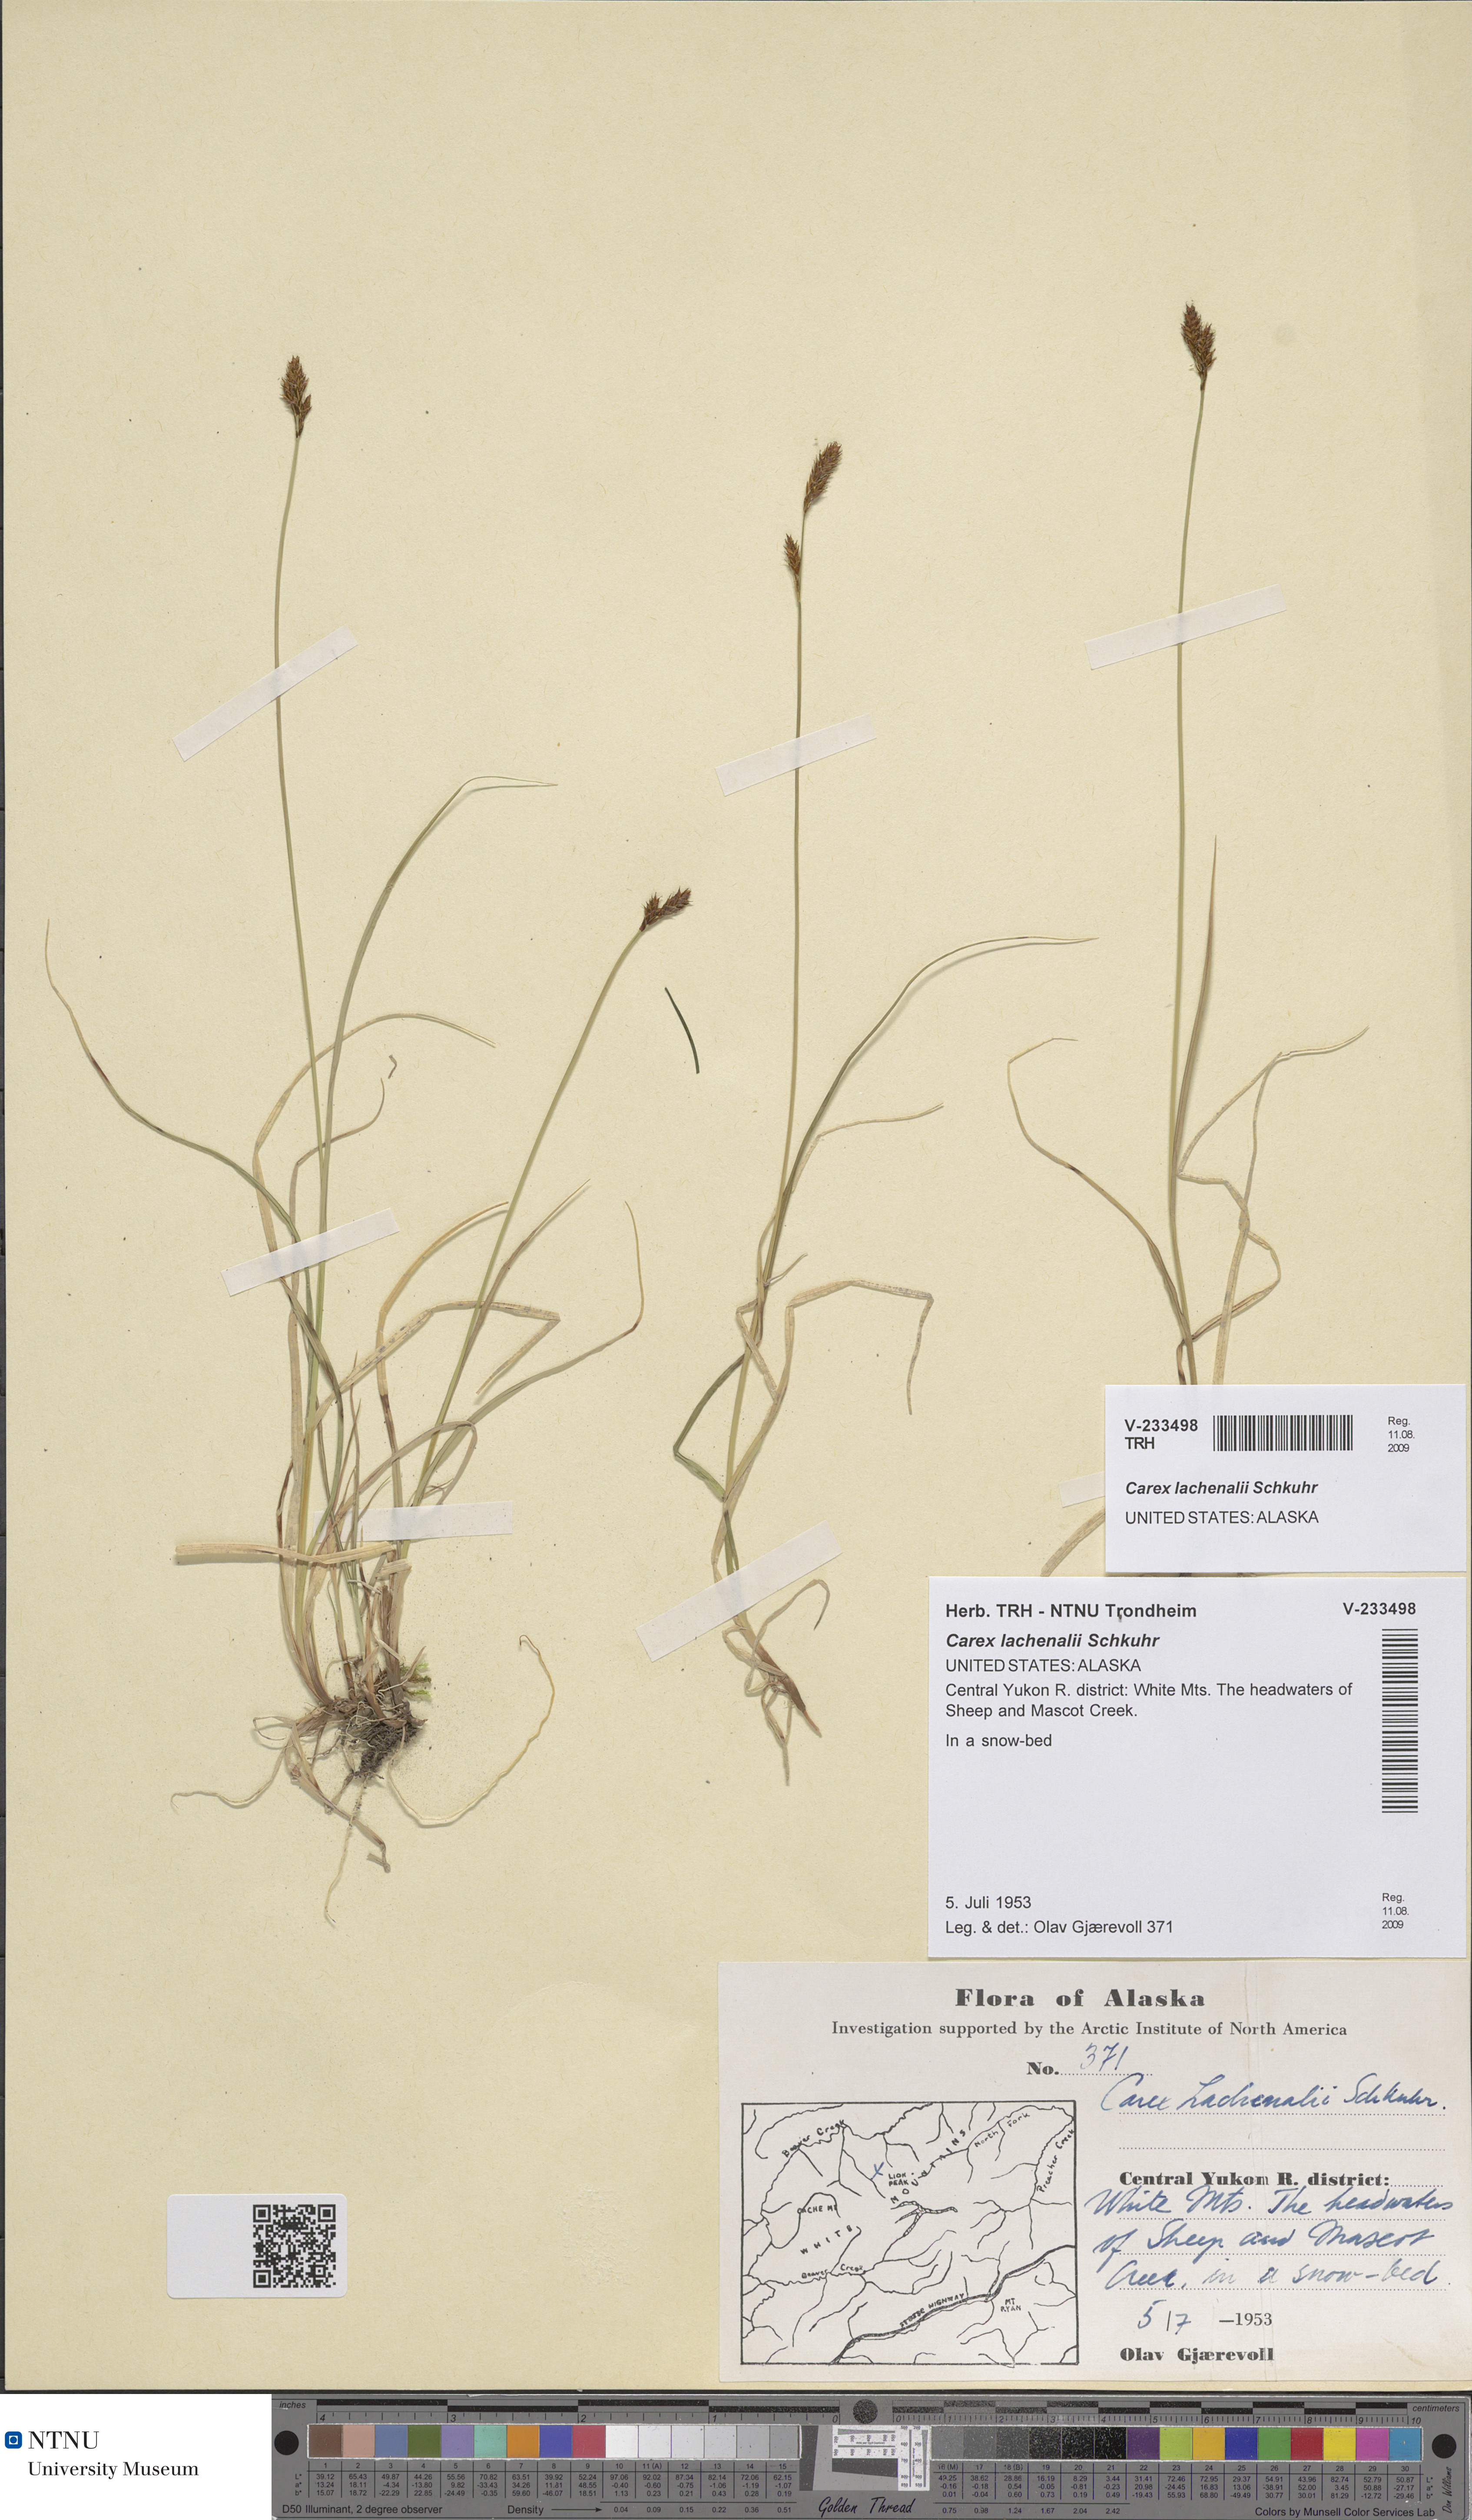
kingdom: Plantae
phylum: Tracheophyta
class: Liliopsida
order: Poales
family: Cyperaceae
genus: Carex
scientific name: Carex lachenalii
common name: Hare's-foot sedge
